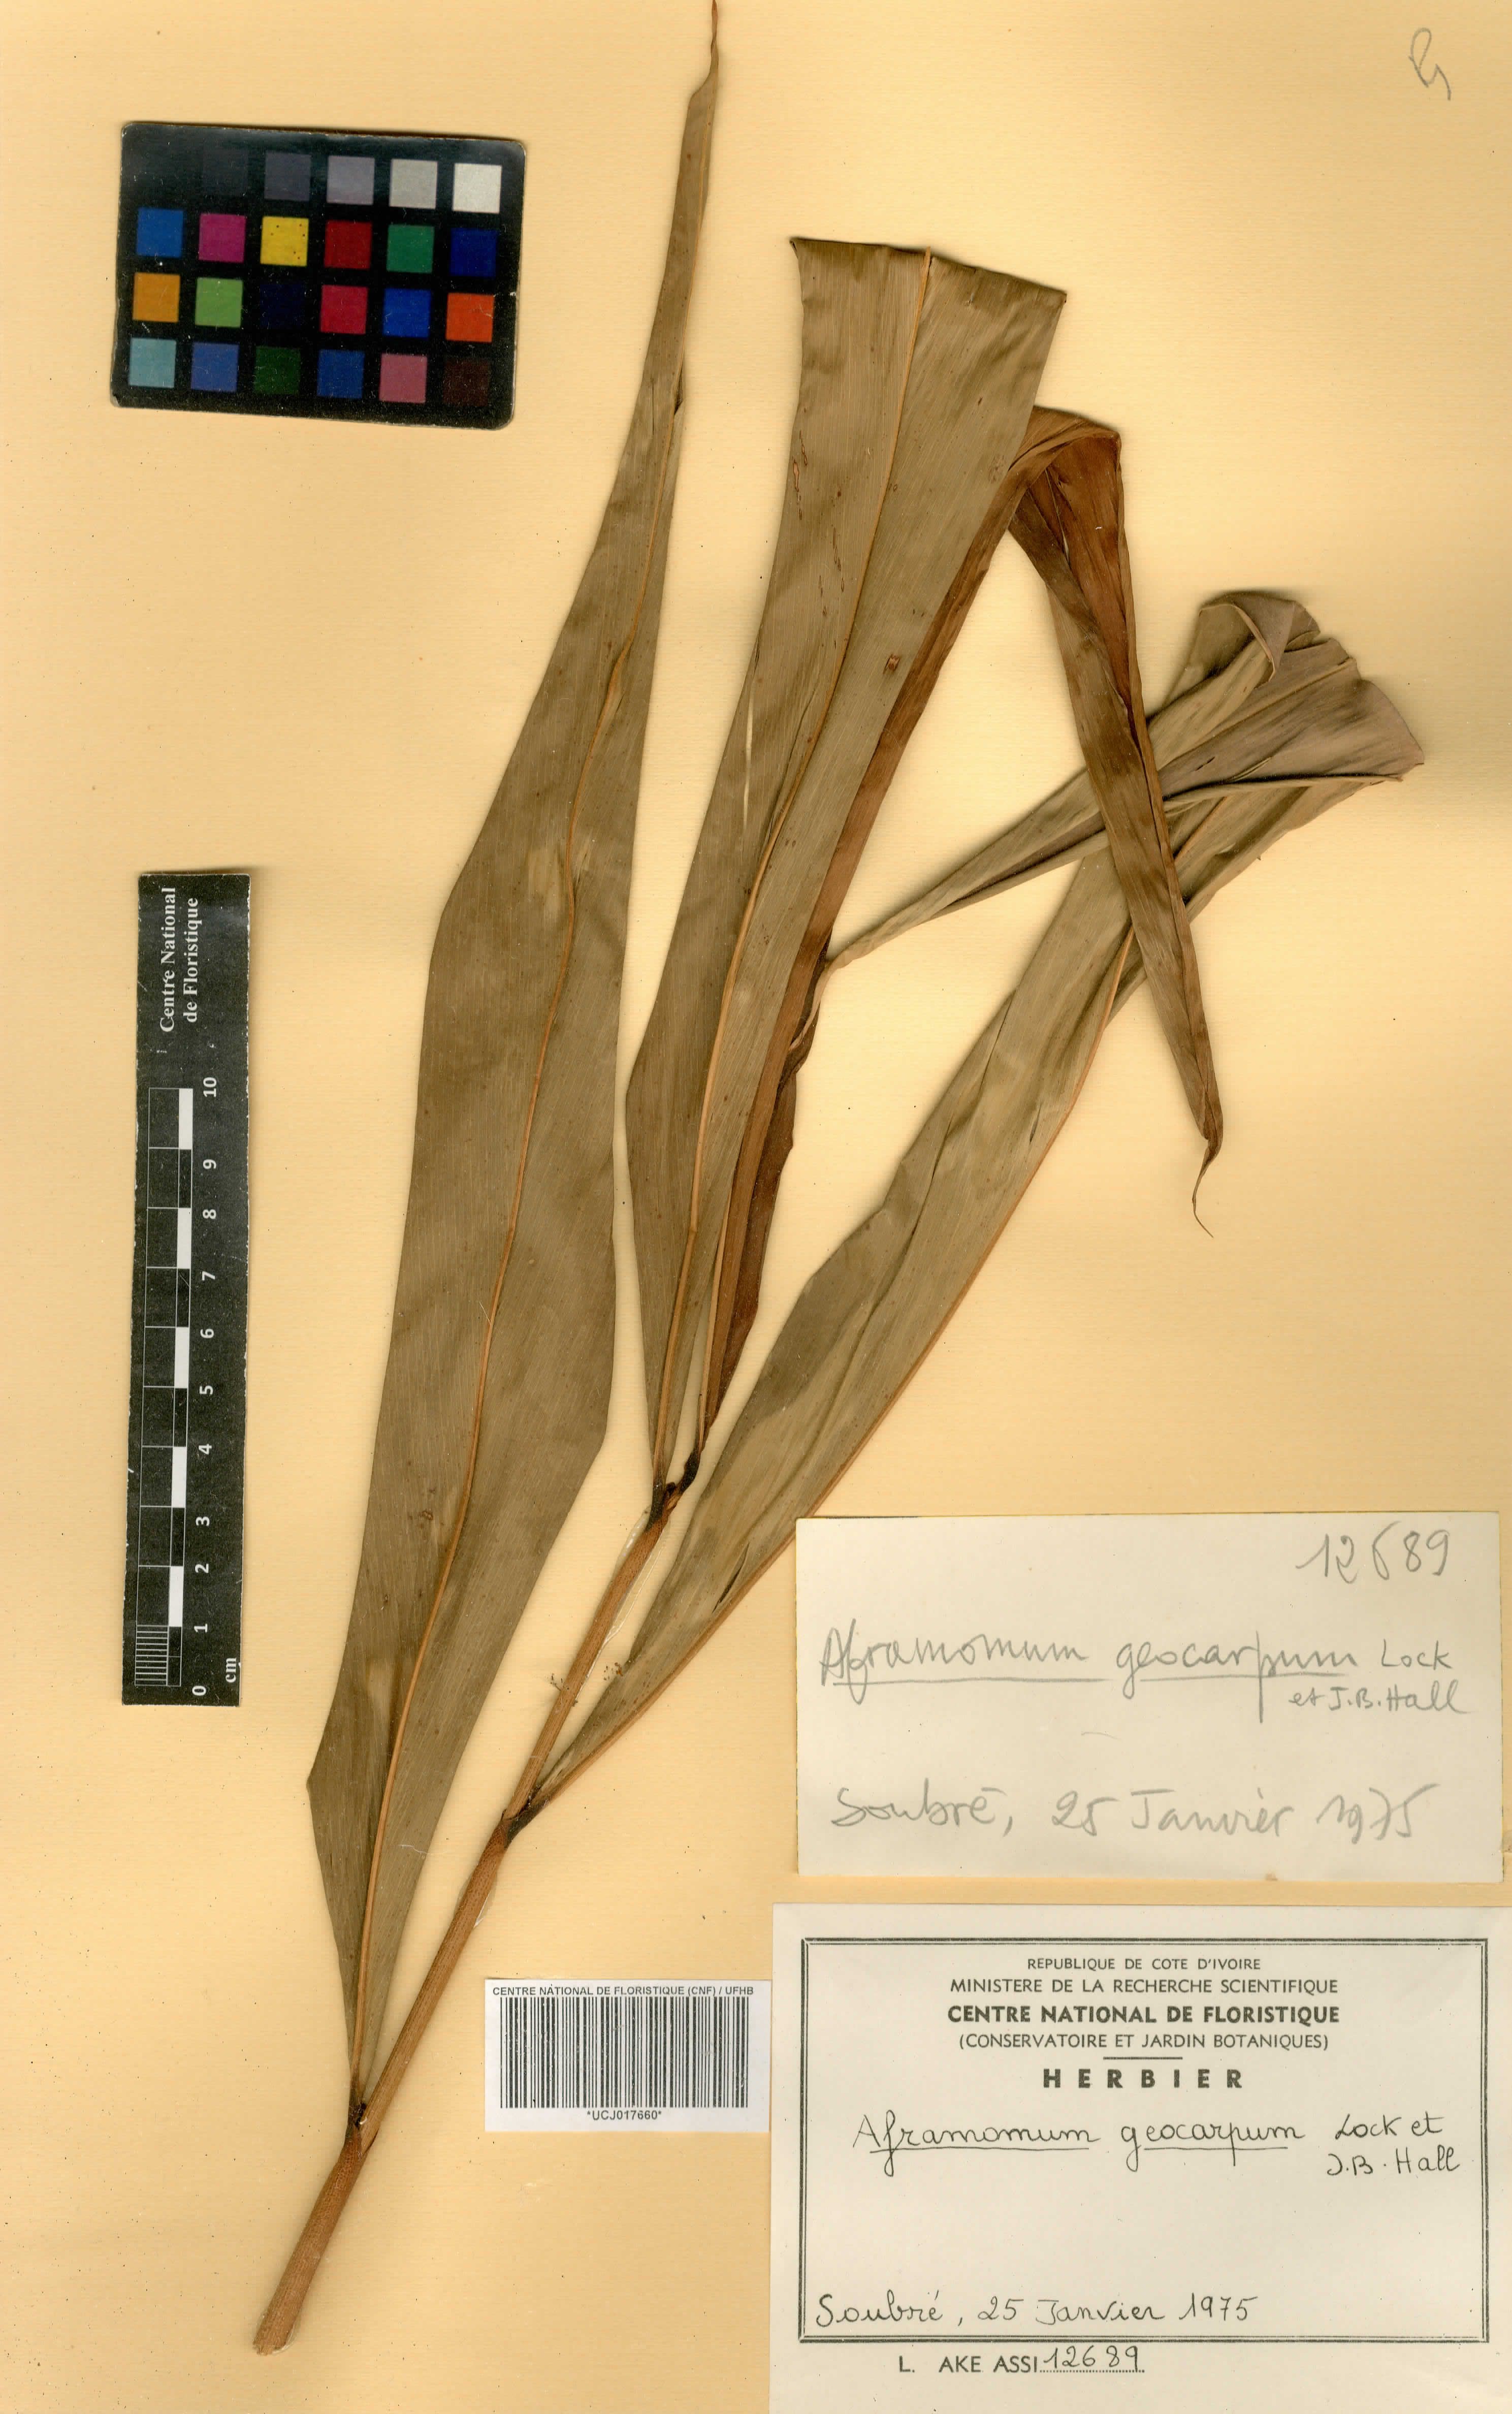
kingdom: Plantae
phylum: Tracheophyta
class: Liliopsida
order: Zingiberales
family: Zingiberaceae
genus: Aframomum
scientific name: Aframomum limbatum
